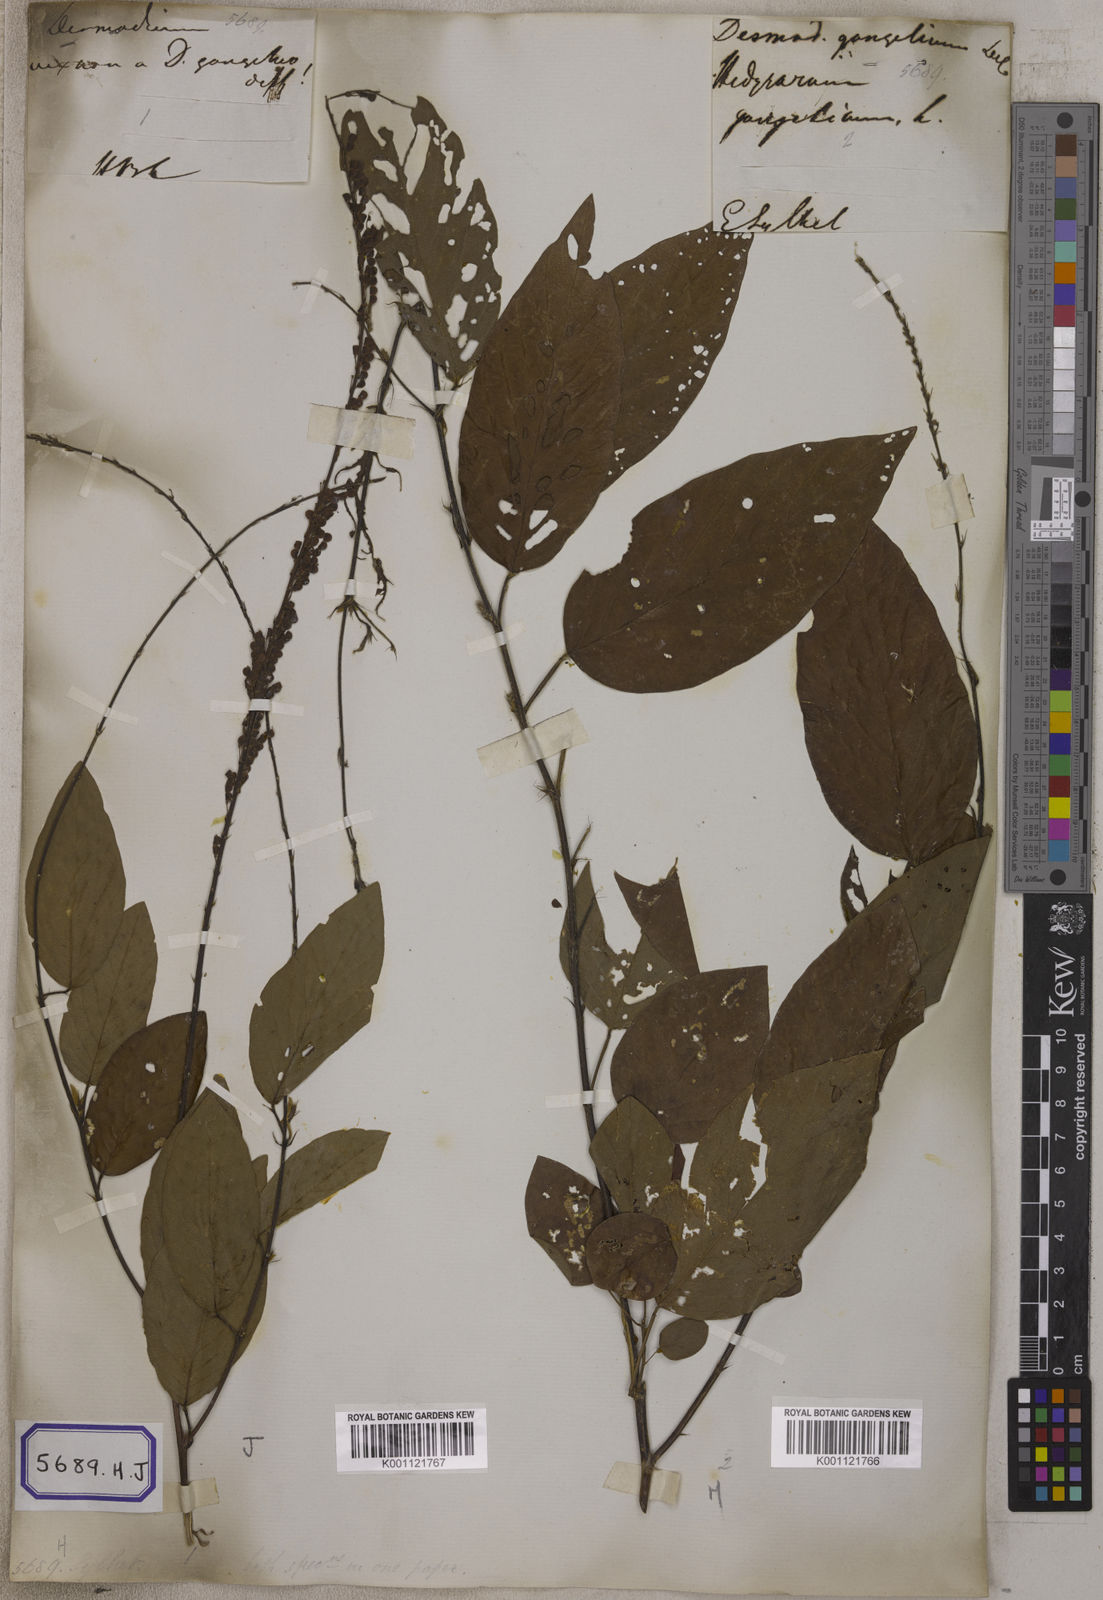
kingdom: Plantae
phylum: Tracheophyta
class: Magnoliopsida
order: Fabales
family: Fabaceae
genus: Pleurolobus
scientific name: Pleurolobus gangeticus
